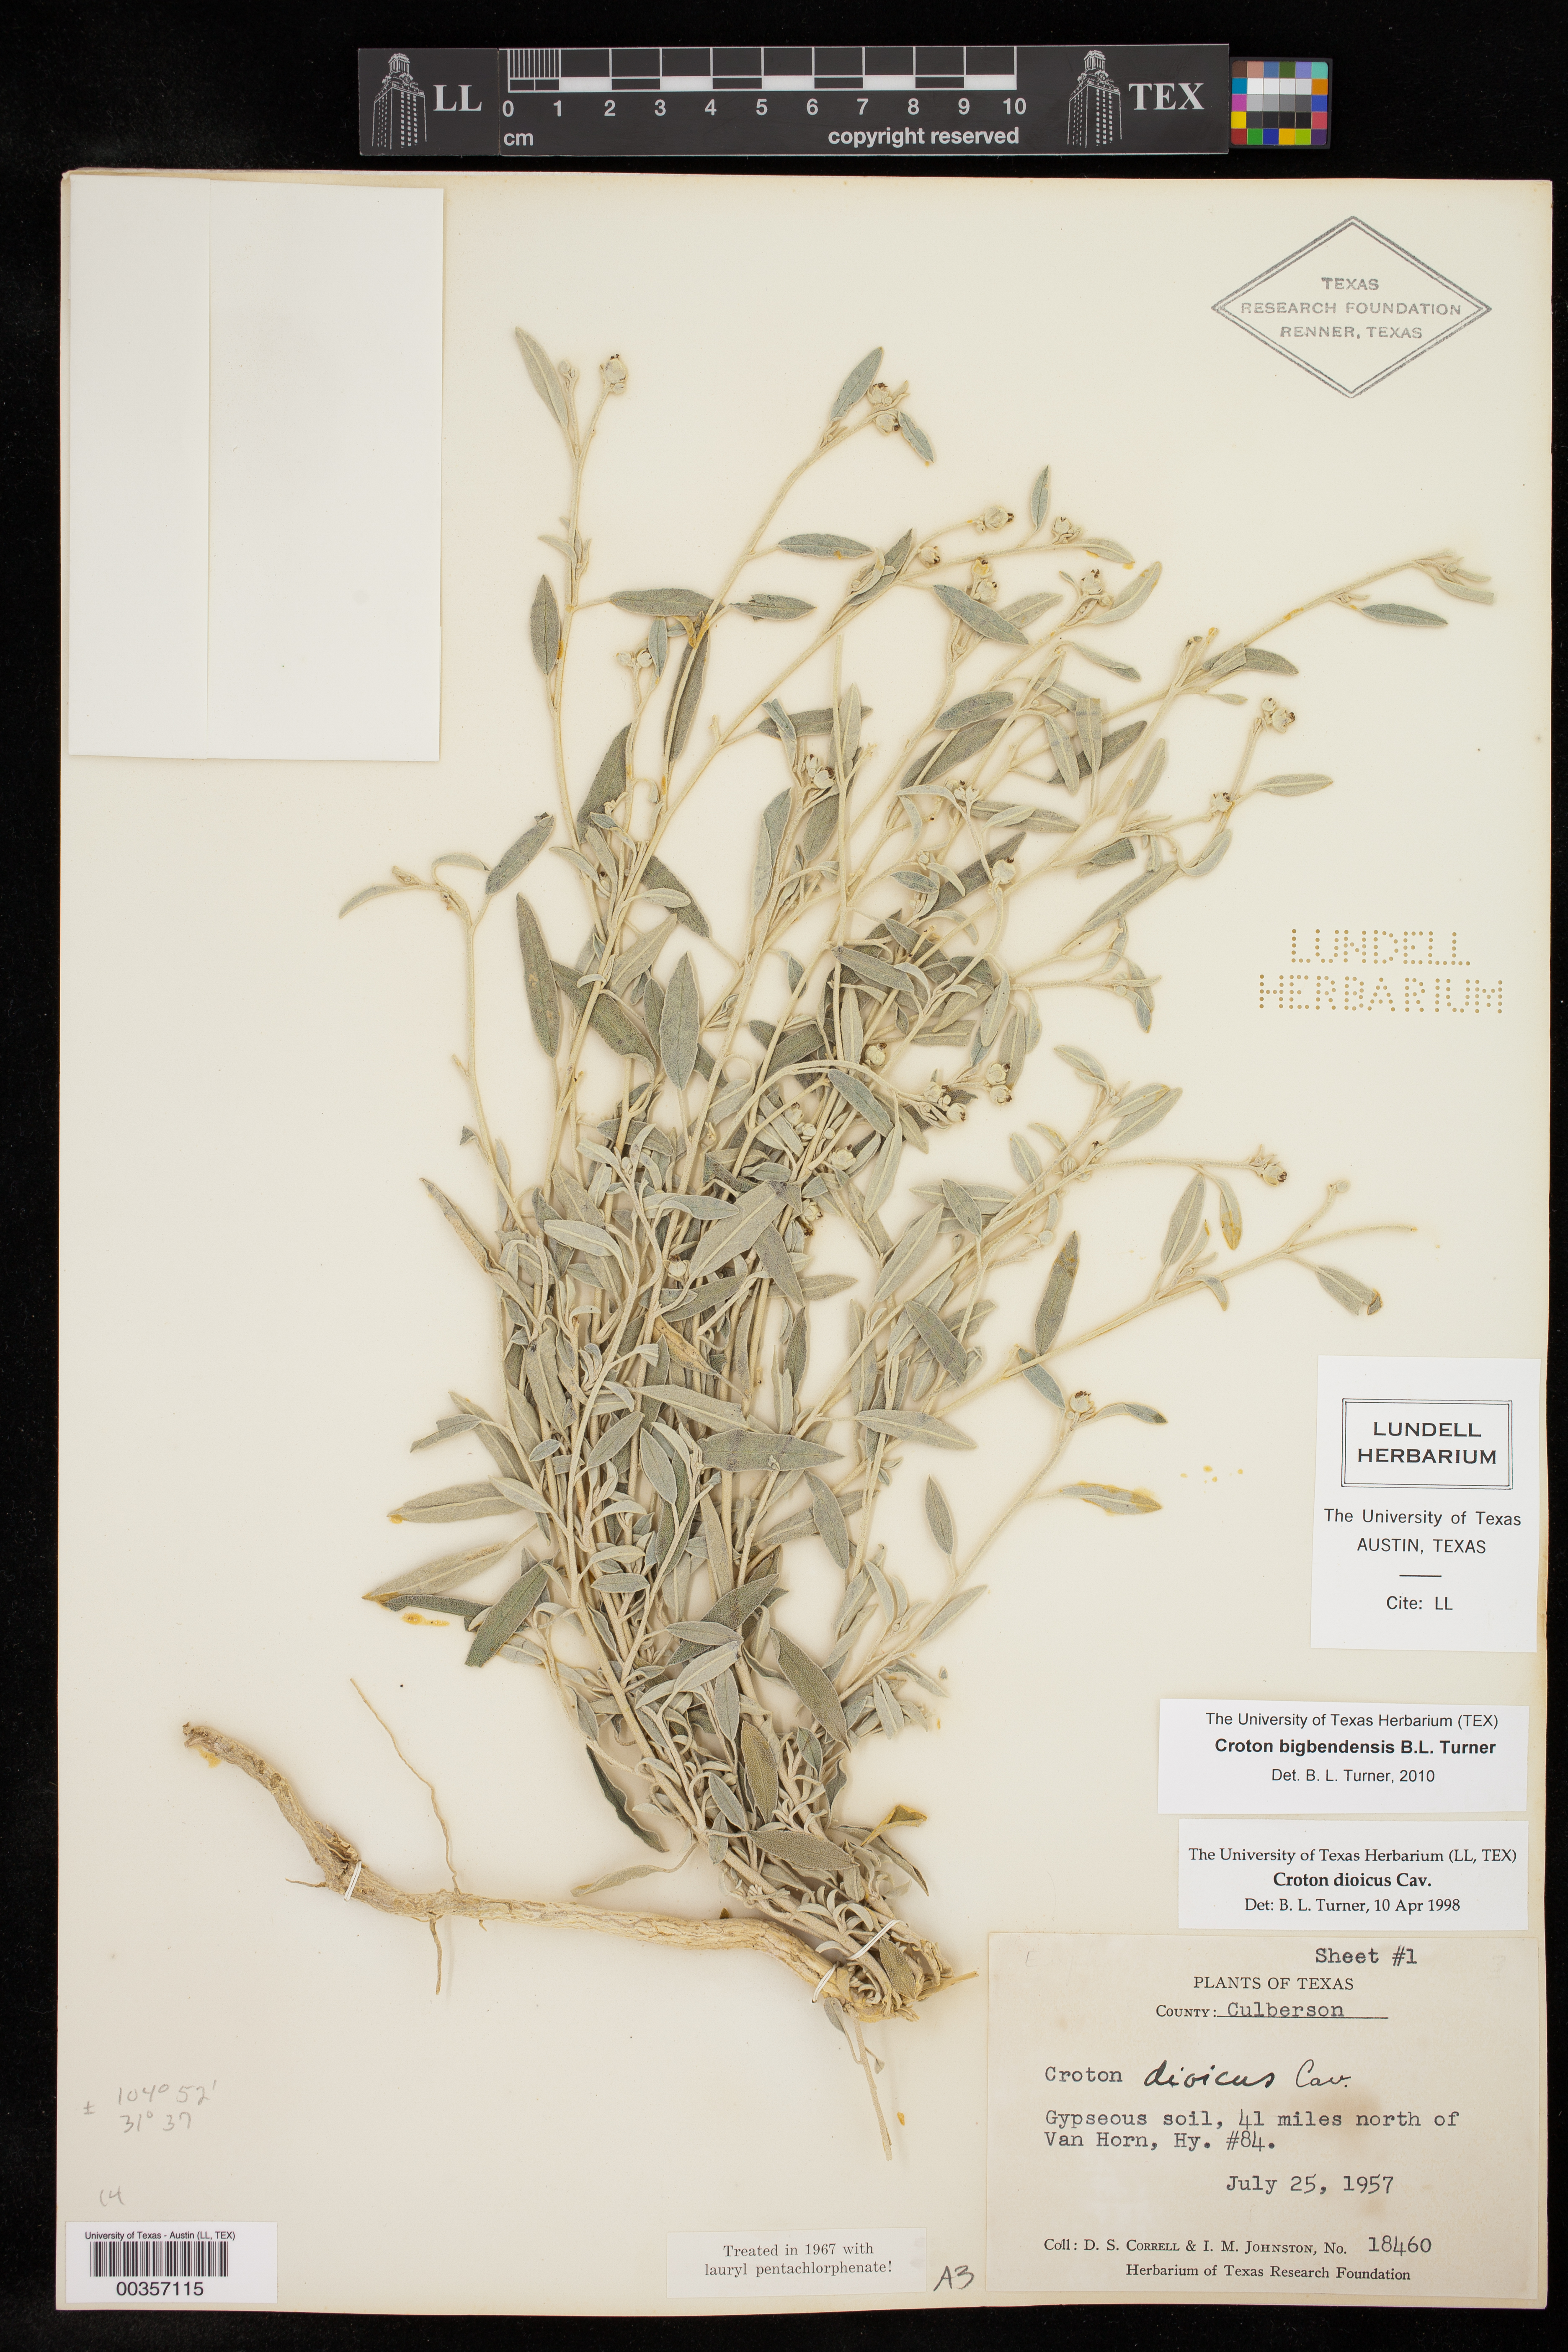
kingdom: Plantae
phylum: Tracheophyta
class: Magnoliopsida
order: Malpighiales
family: Euphorbiaceae
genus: Croton
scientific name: Croton dioicus
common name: Grassland croton
